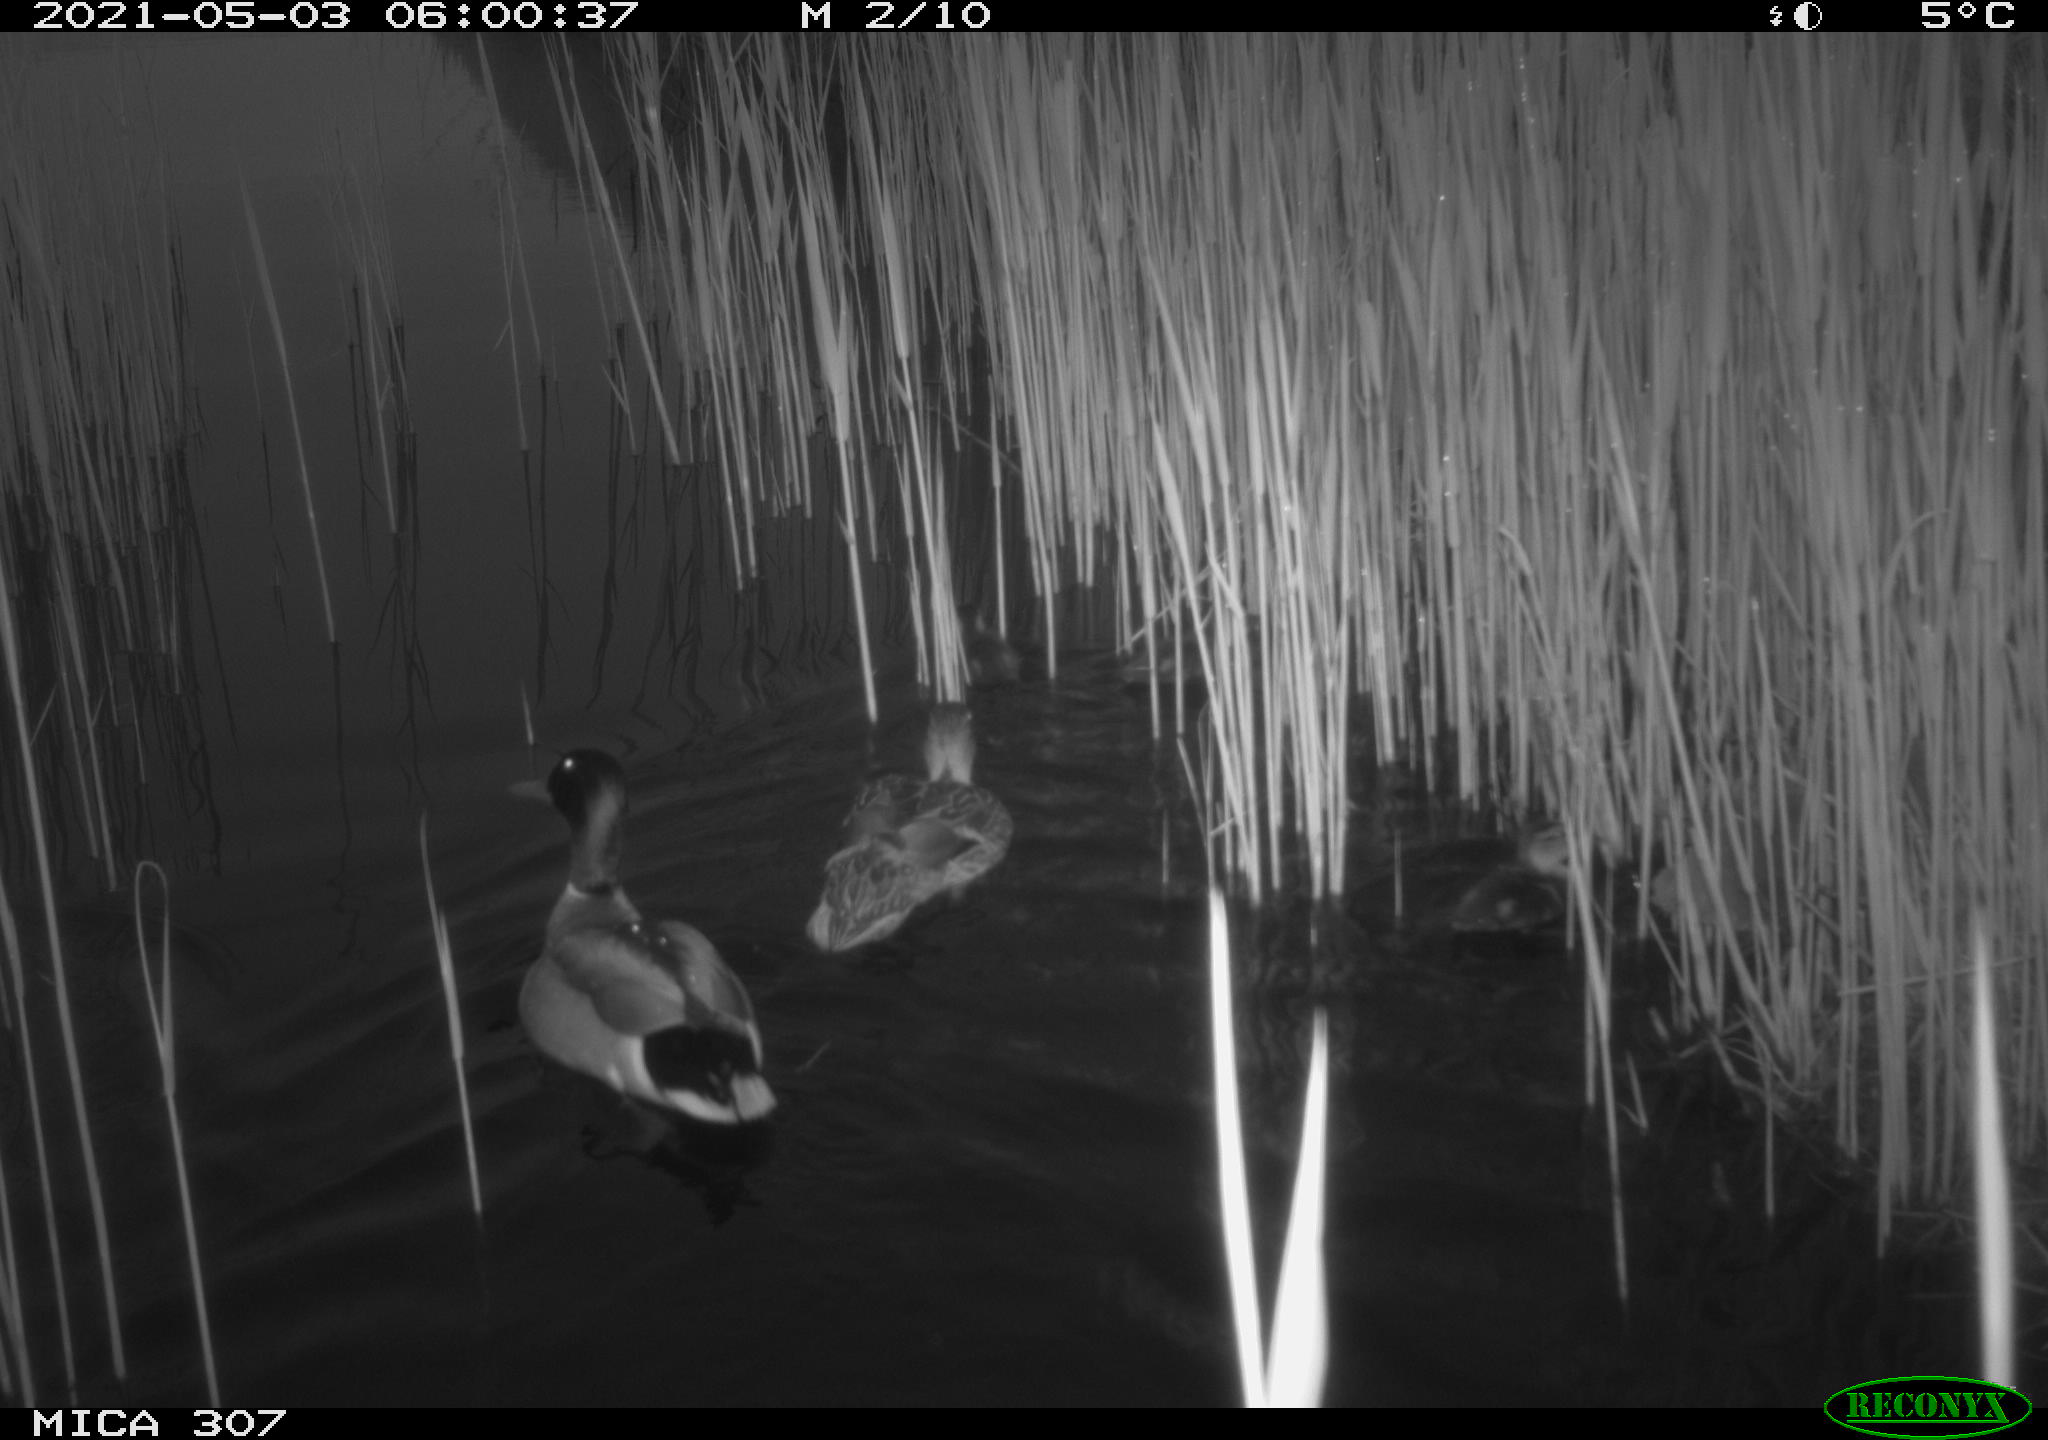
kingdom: Animalia
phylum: Chordata
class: Aves
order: Anseriformes
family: Anatidae
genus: Anas
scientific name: Anas platyrhynchos
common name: Mallard
